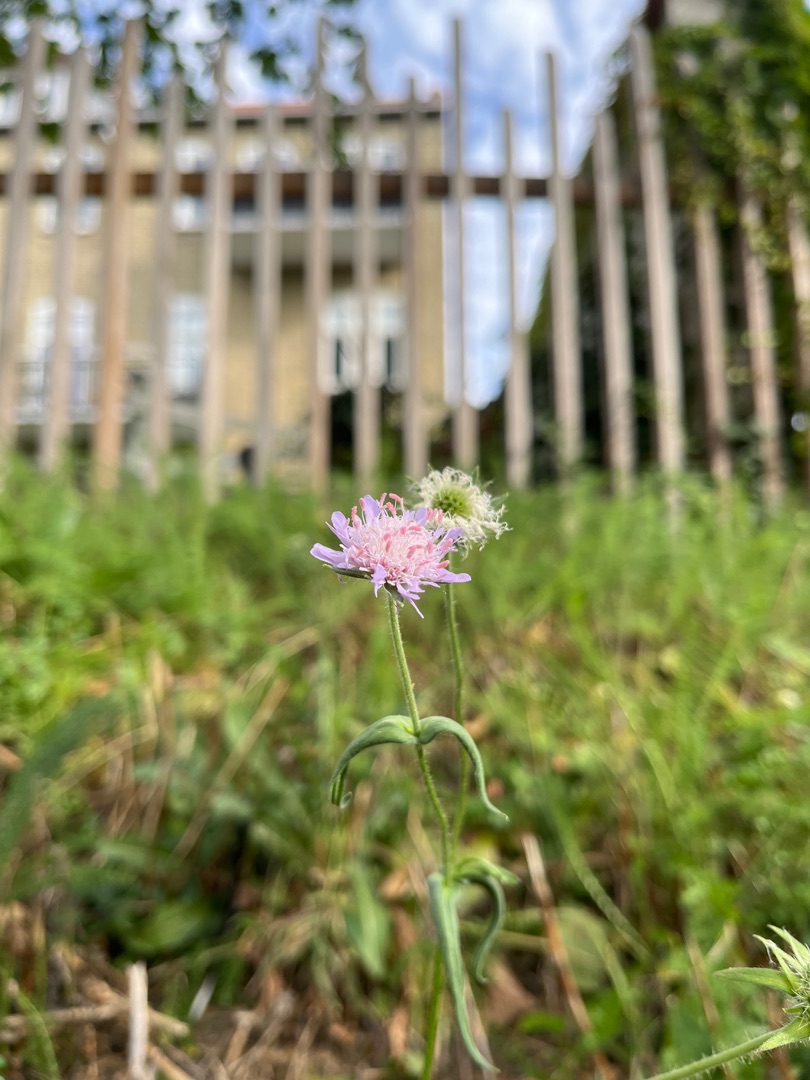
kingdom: Plantae
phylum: Tracheophyta
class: Magnoliopsida
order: Dipsacales
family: Caprifoliaceae
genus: Knautia
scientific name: Knautia arvensis
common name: Blåhat
